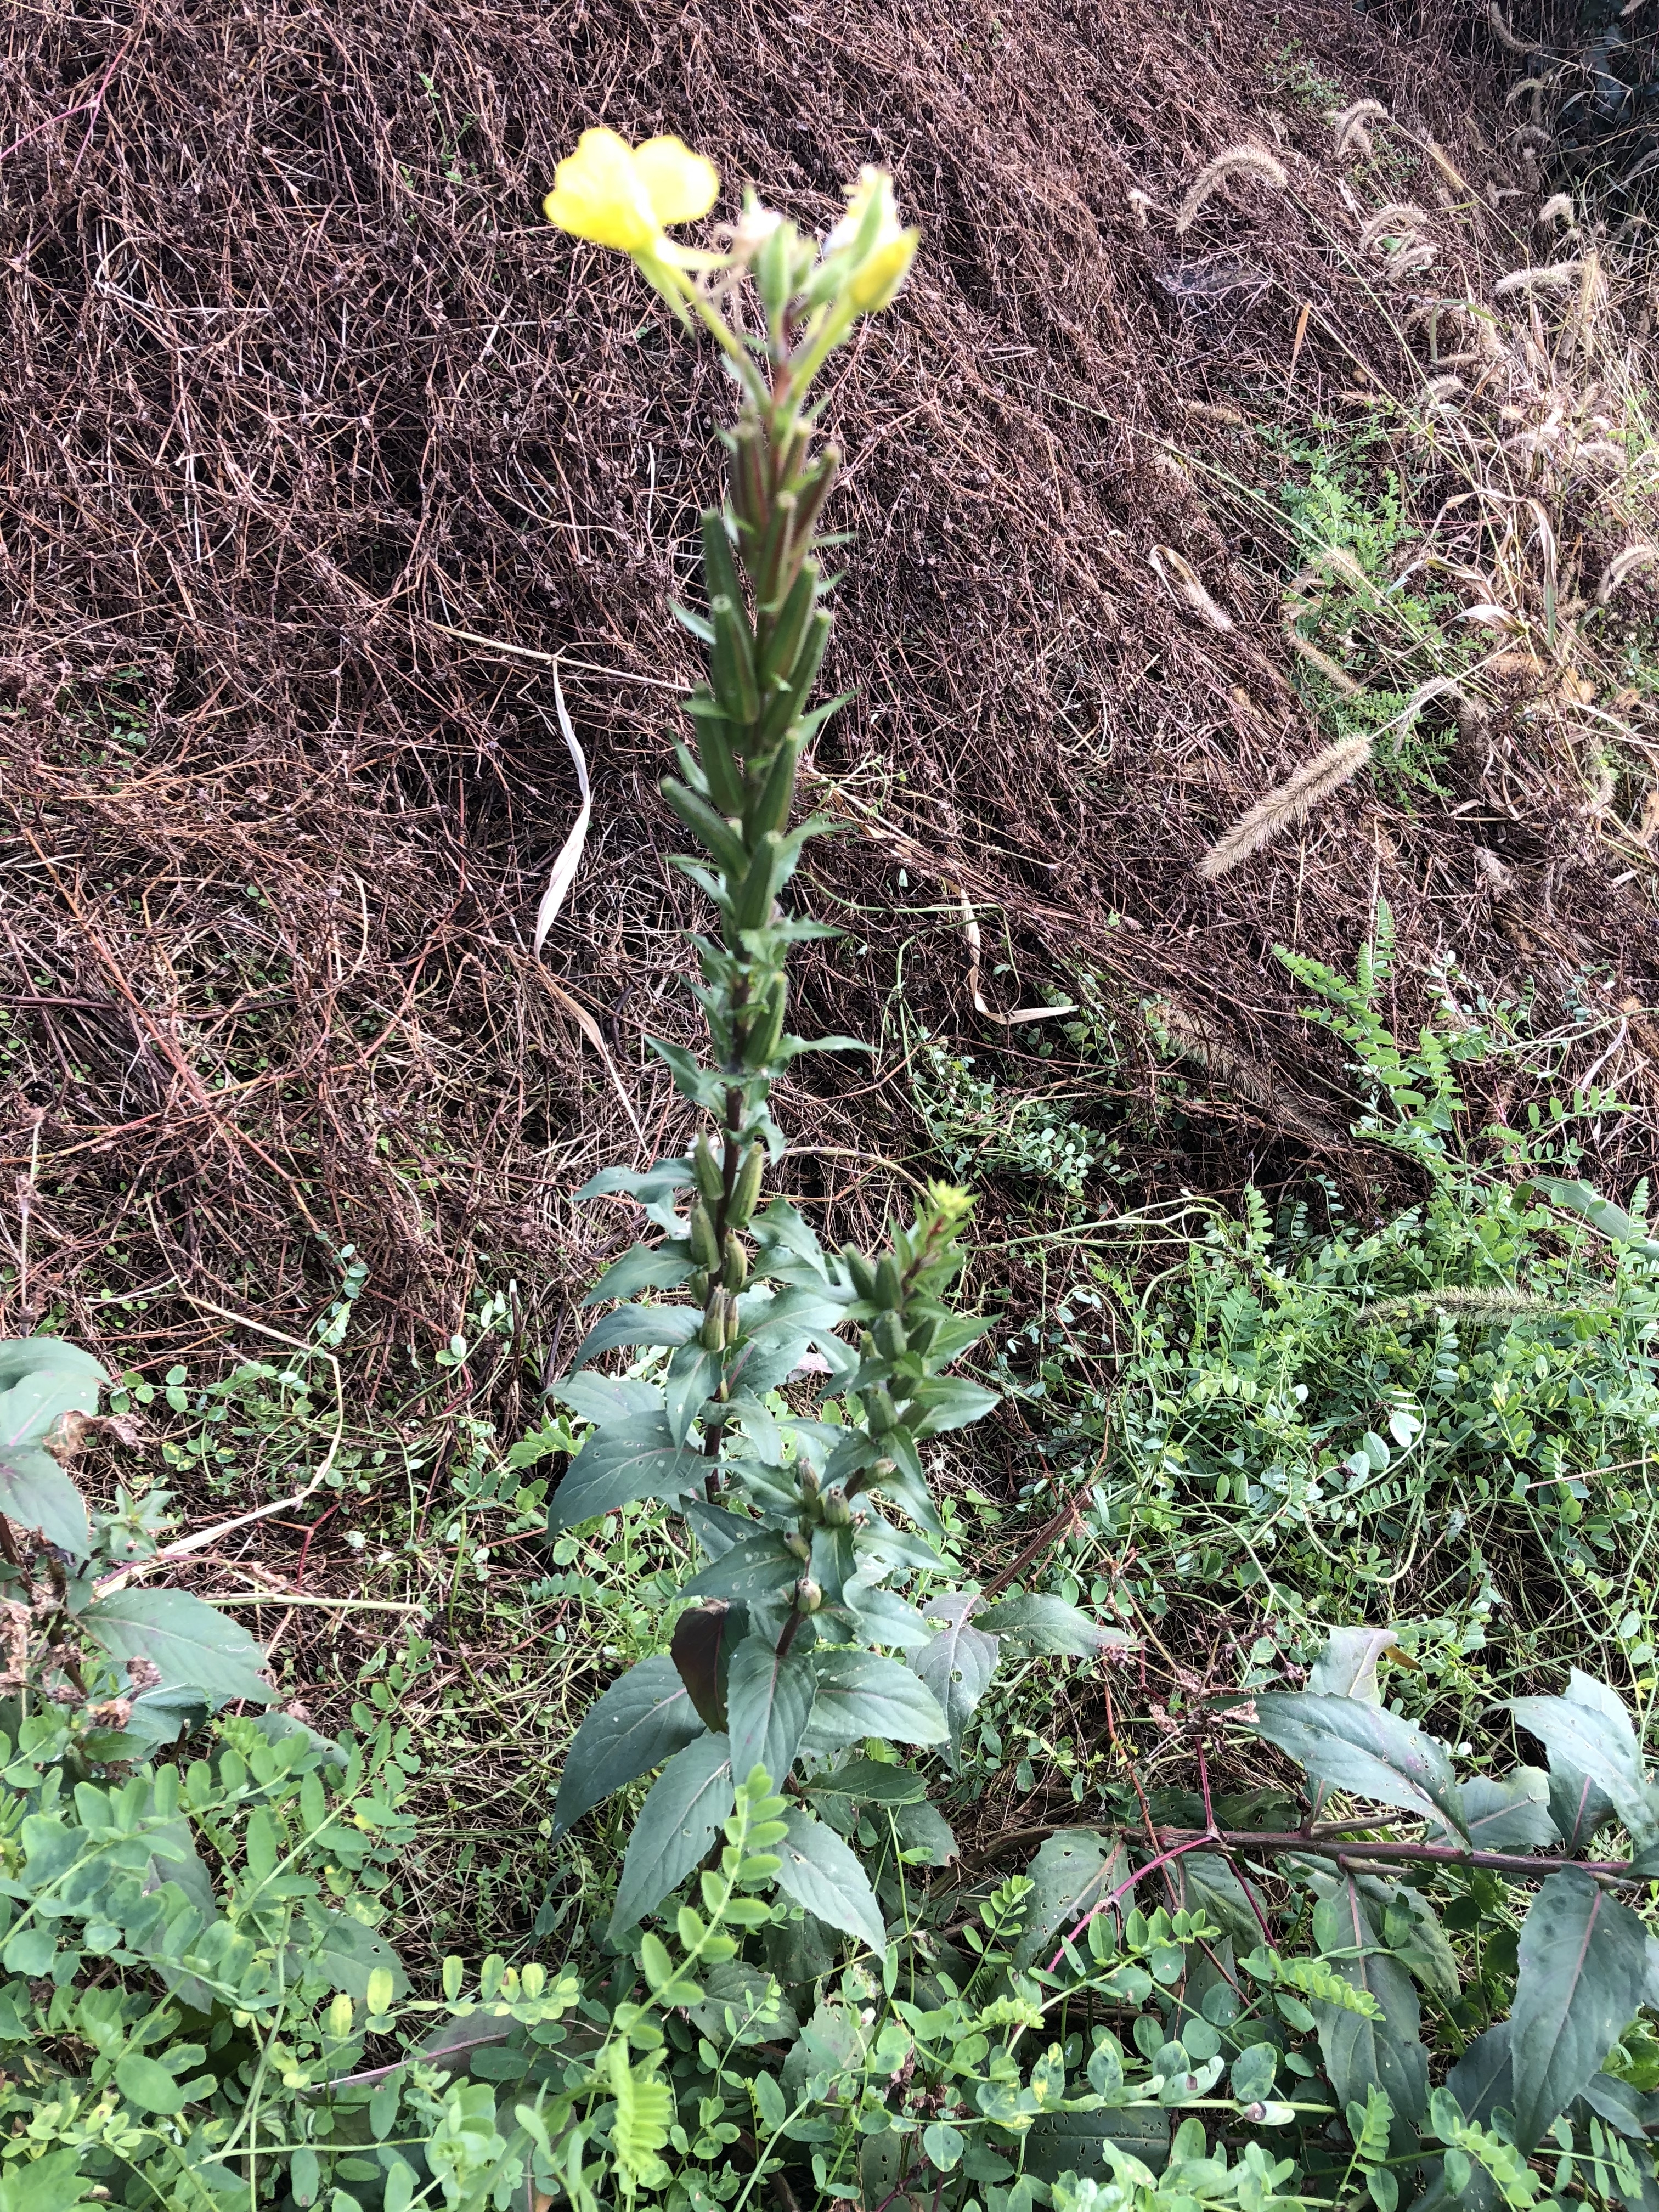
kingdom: Plantae
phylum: Tracheophyta
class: Magnoliopsida
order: Myrtales
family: Onagraceae
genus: Oenothera
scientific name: Oenothera biennis
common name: Evening Primrose
